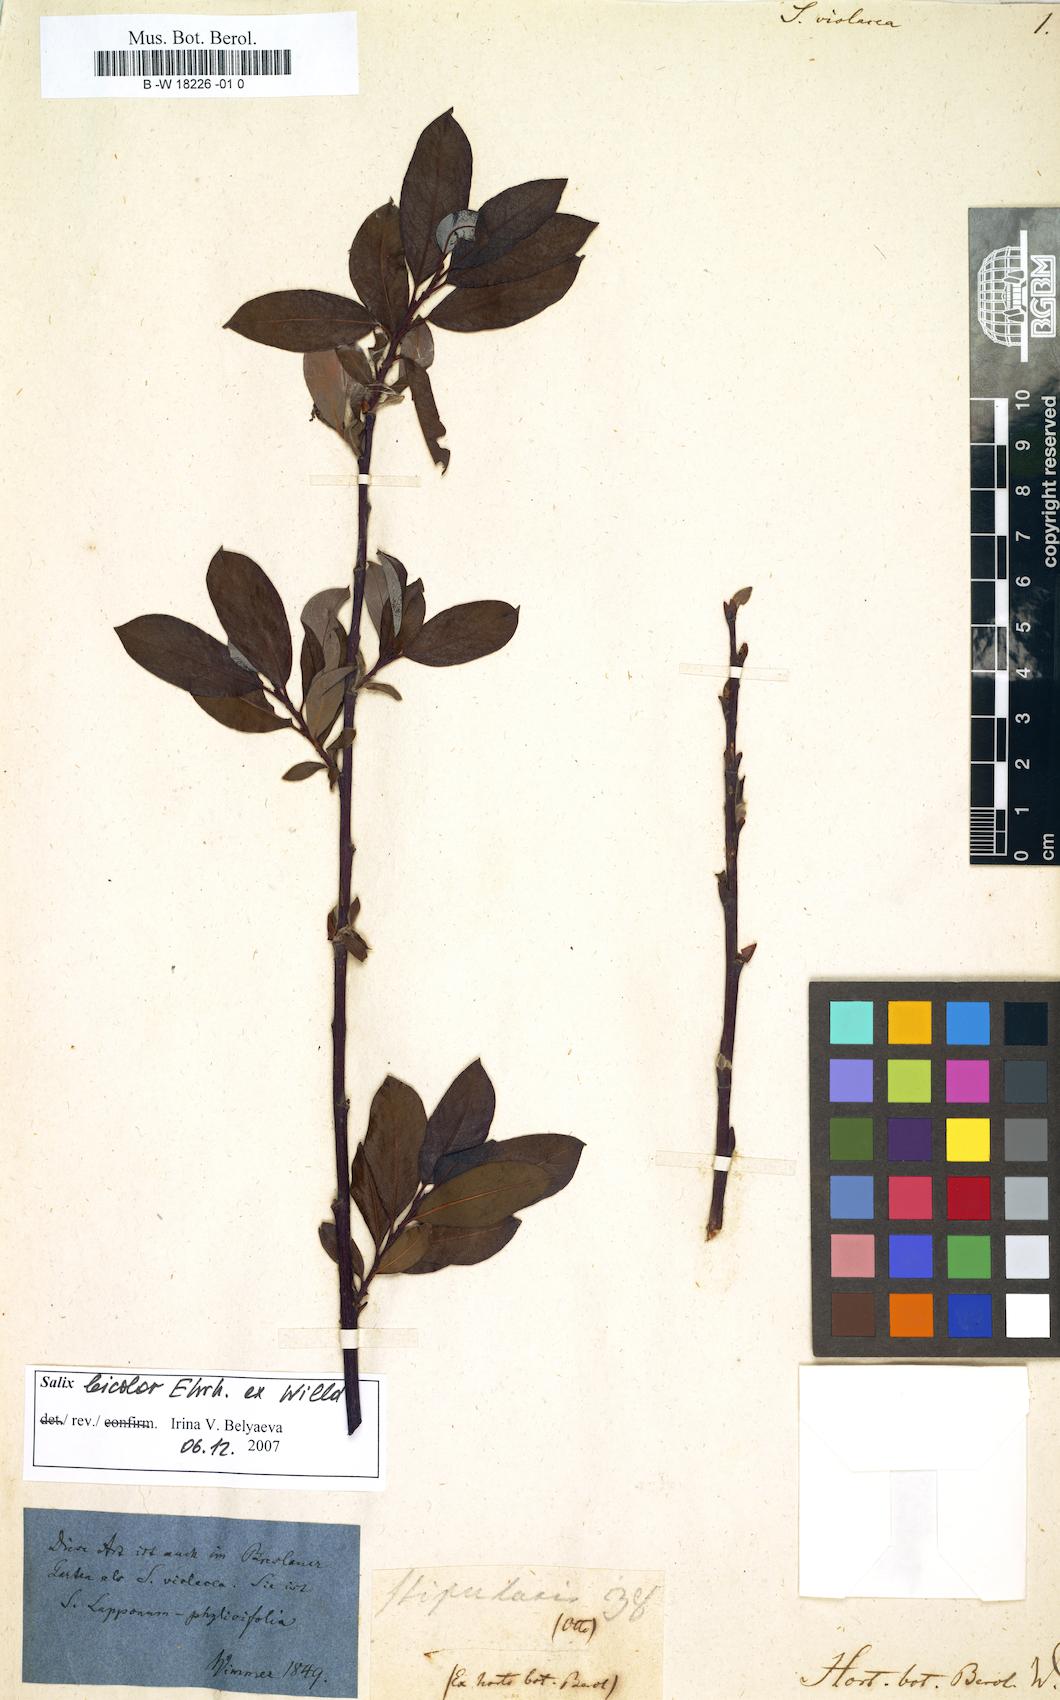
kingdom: Plantae
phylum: Tracheophyta
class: Magnoliopsida
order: Malpighiales
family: Salicaceae
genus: Salix
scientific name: Salix
